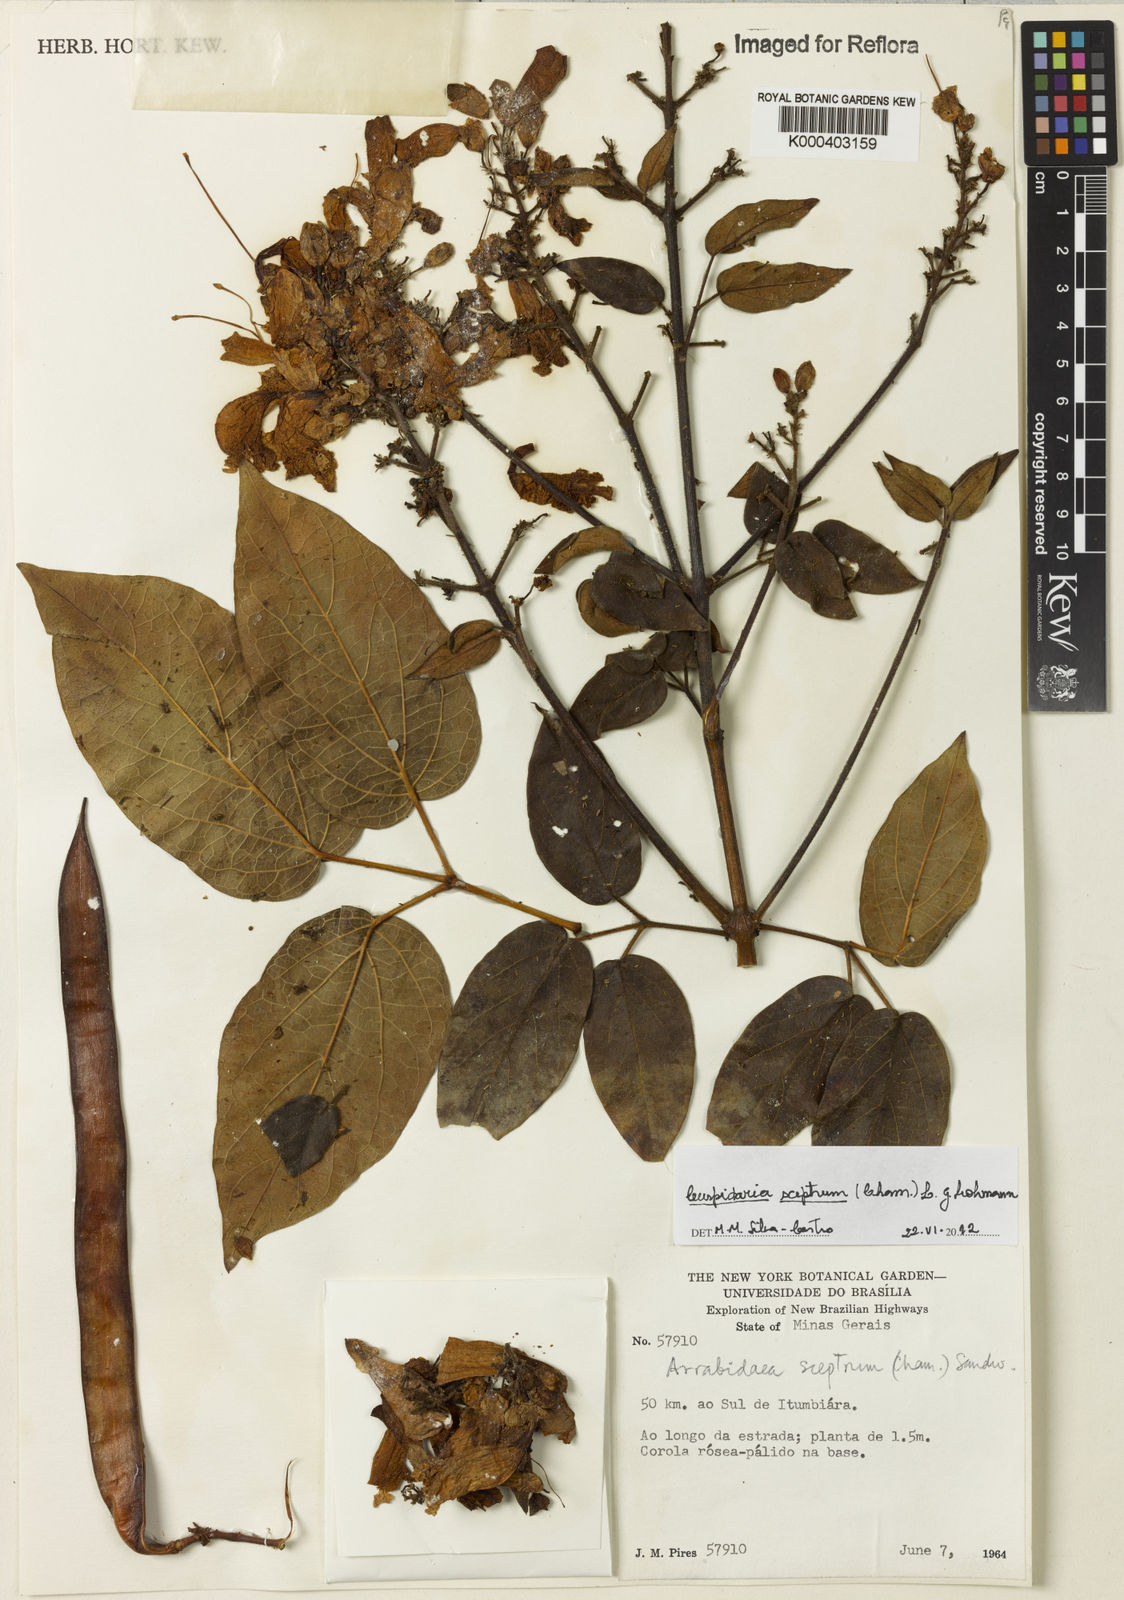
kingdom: Plantae
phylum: Tracheophyta
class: Magnoliopsida
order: Lamiales
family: Bignoniaceae
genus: Cuspidaria
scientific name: Cuspidaria sceptrum
